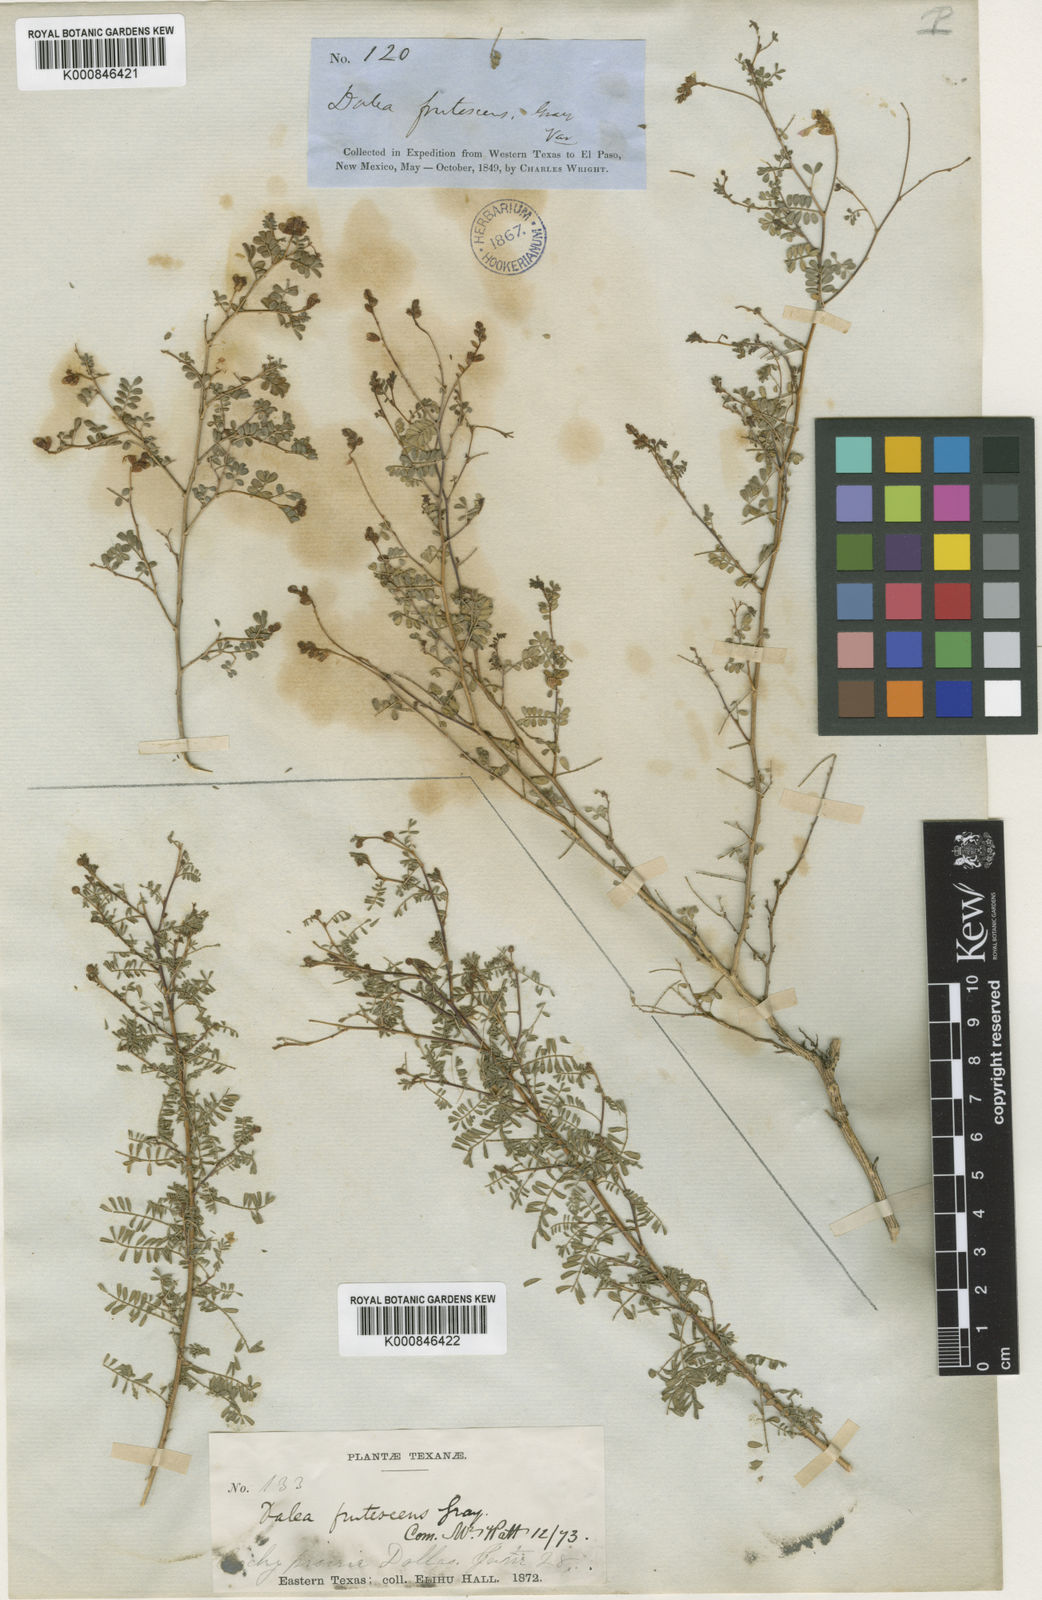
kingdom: Plantae
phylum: Tracheophyta
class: Magnoliopsida
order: Fabales
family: Fabaceae
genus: Dalea
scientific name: Dalea frutescens
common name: Black dalea
